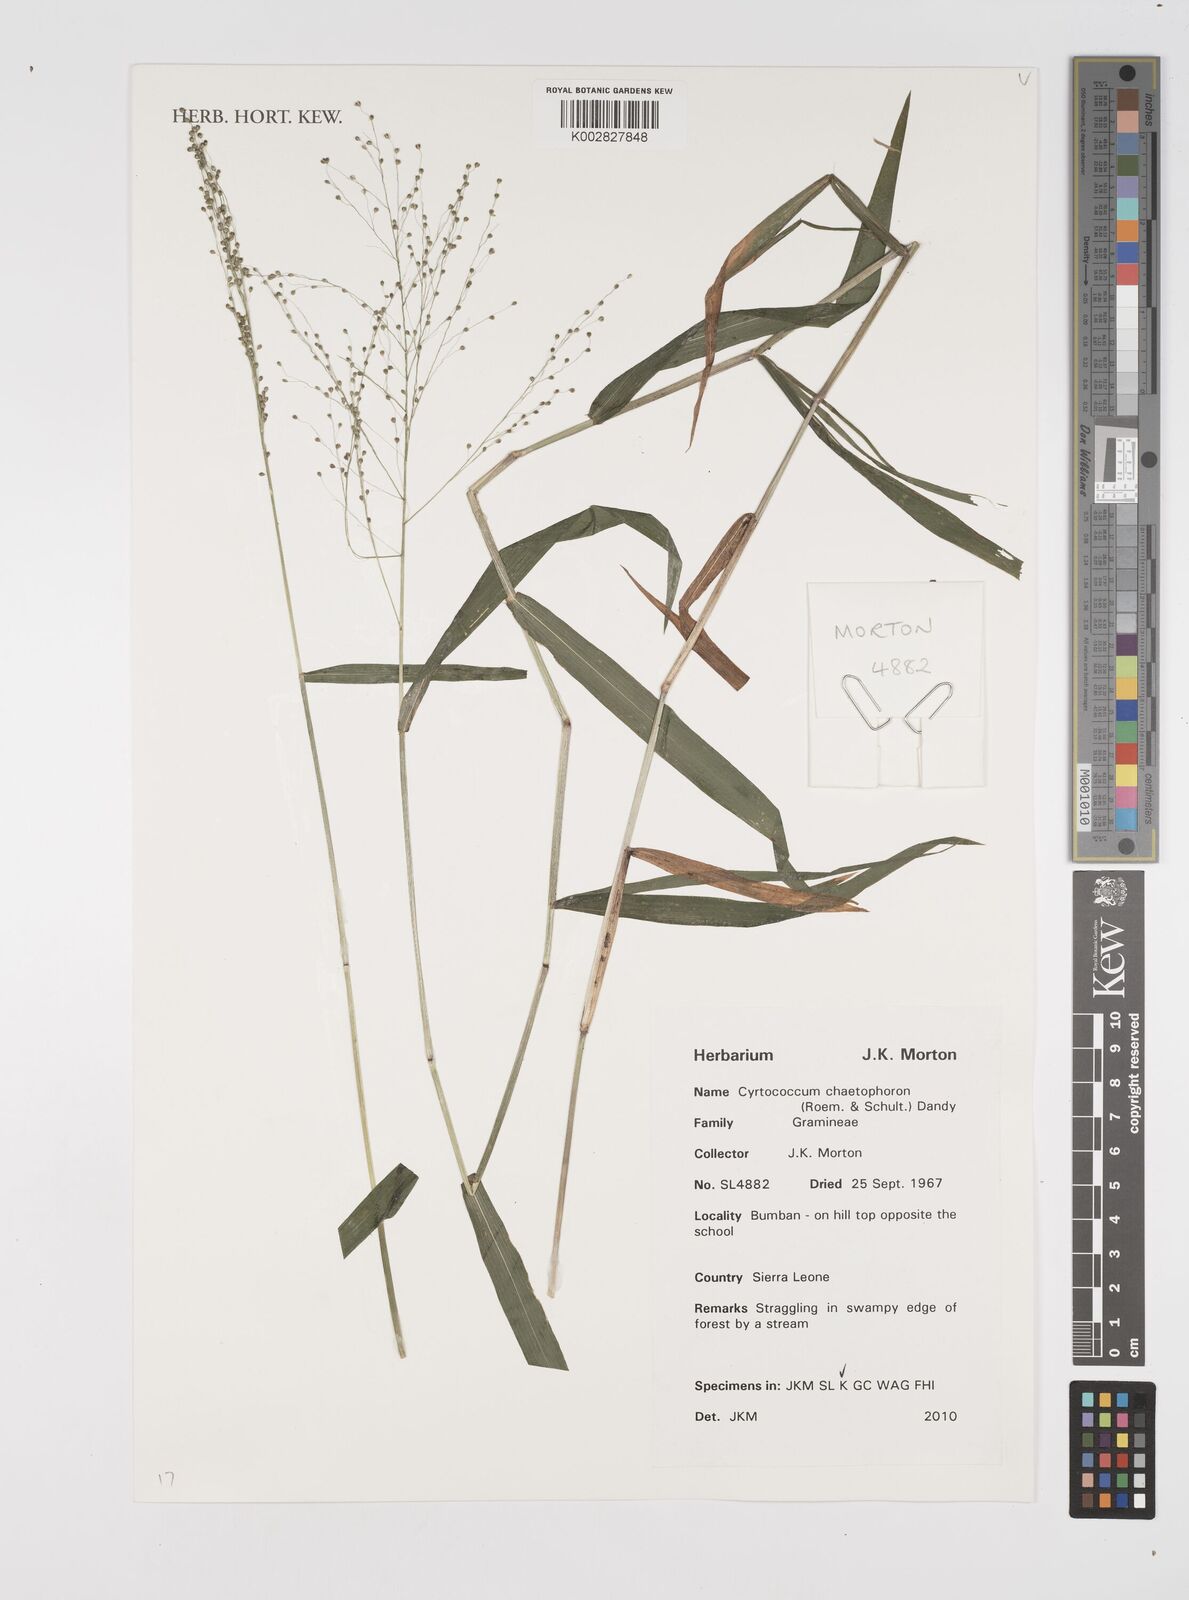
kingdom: Plantae
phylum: Tracheophyta
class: Liliopsida
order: Poales
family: Poaceae
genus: Cyrtococcum
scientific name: Cyrtococcum chaetophoron
